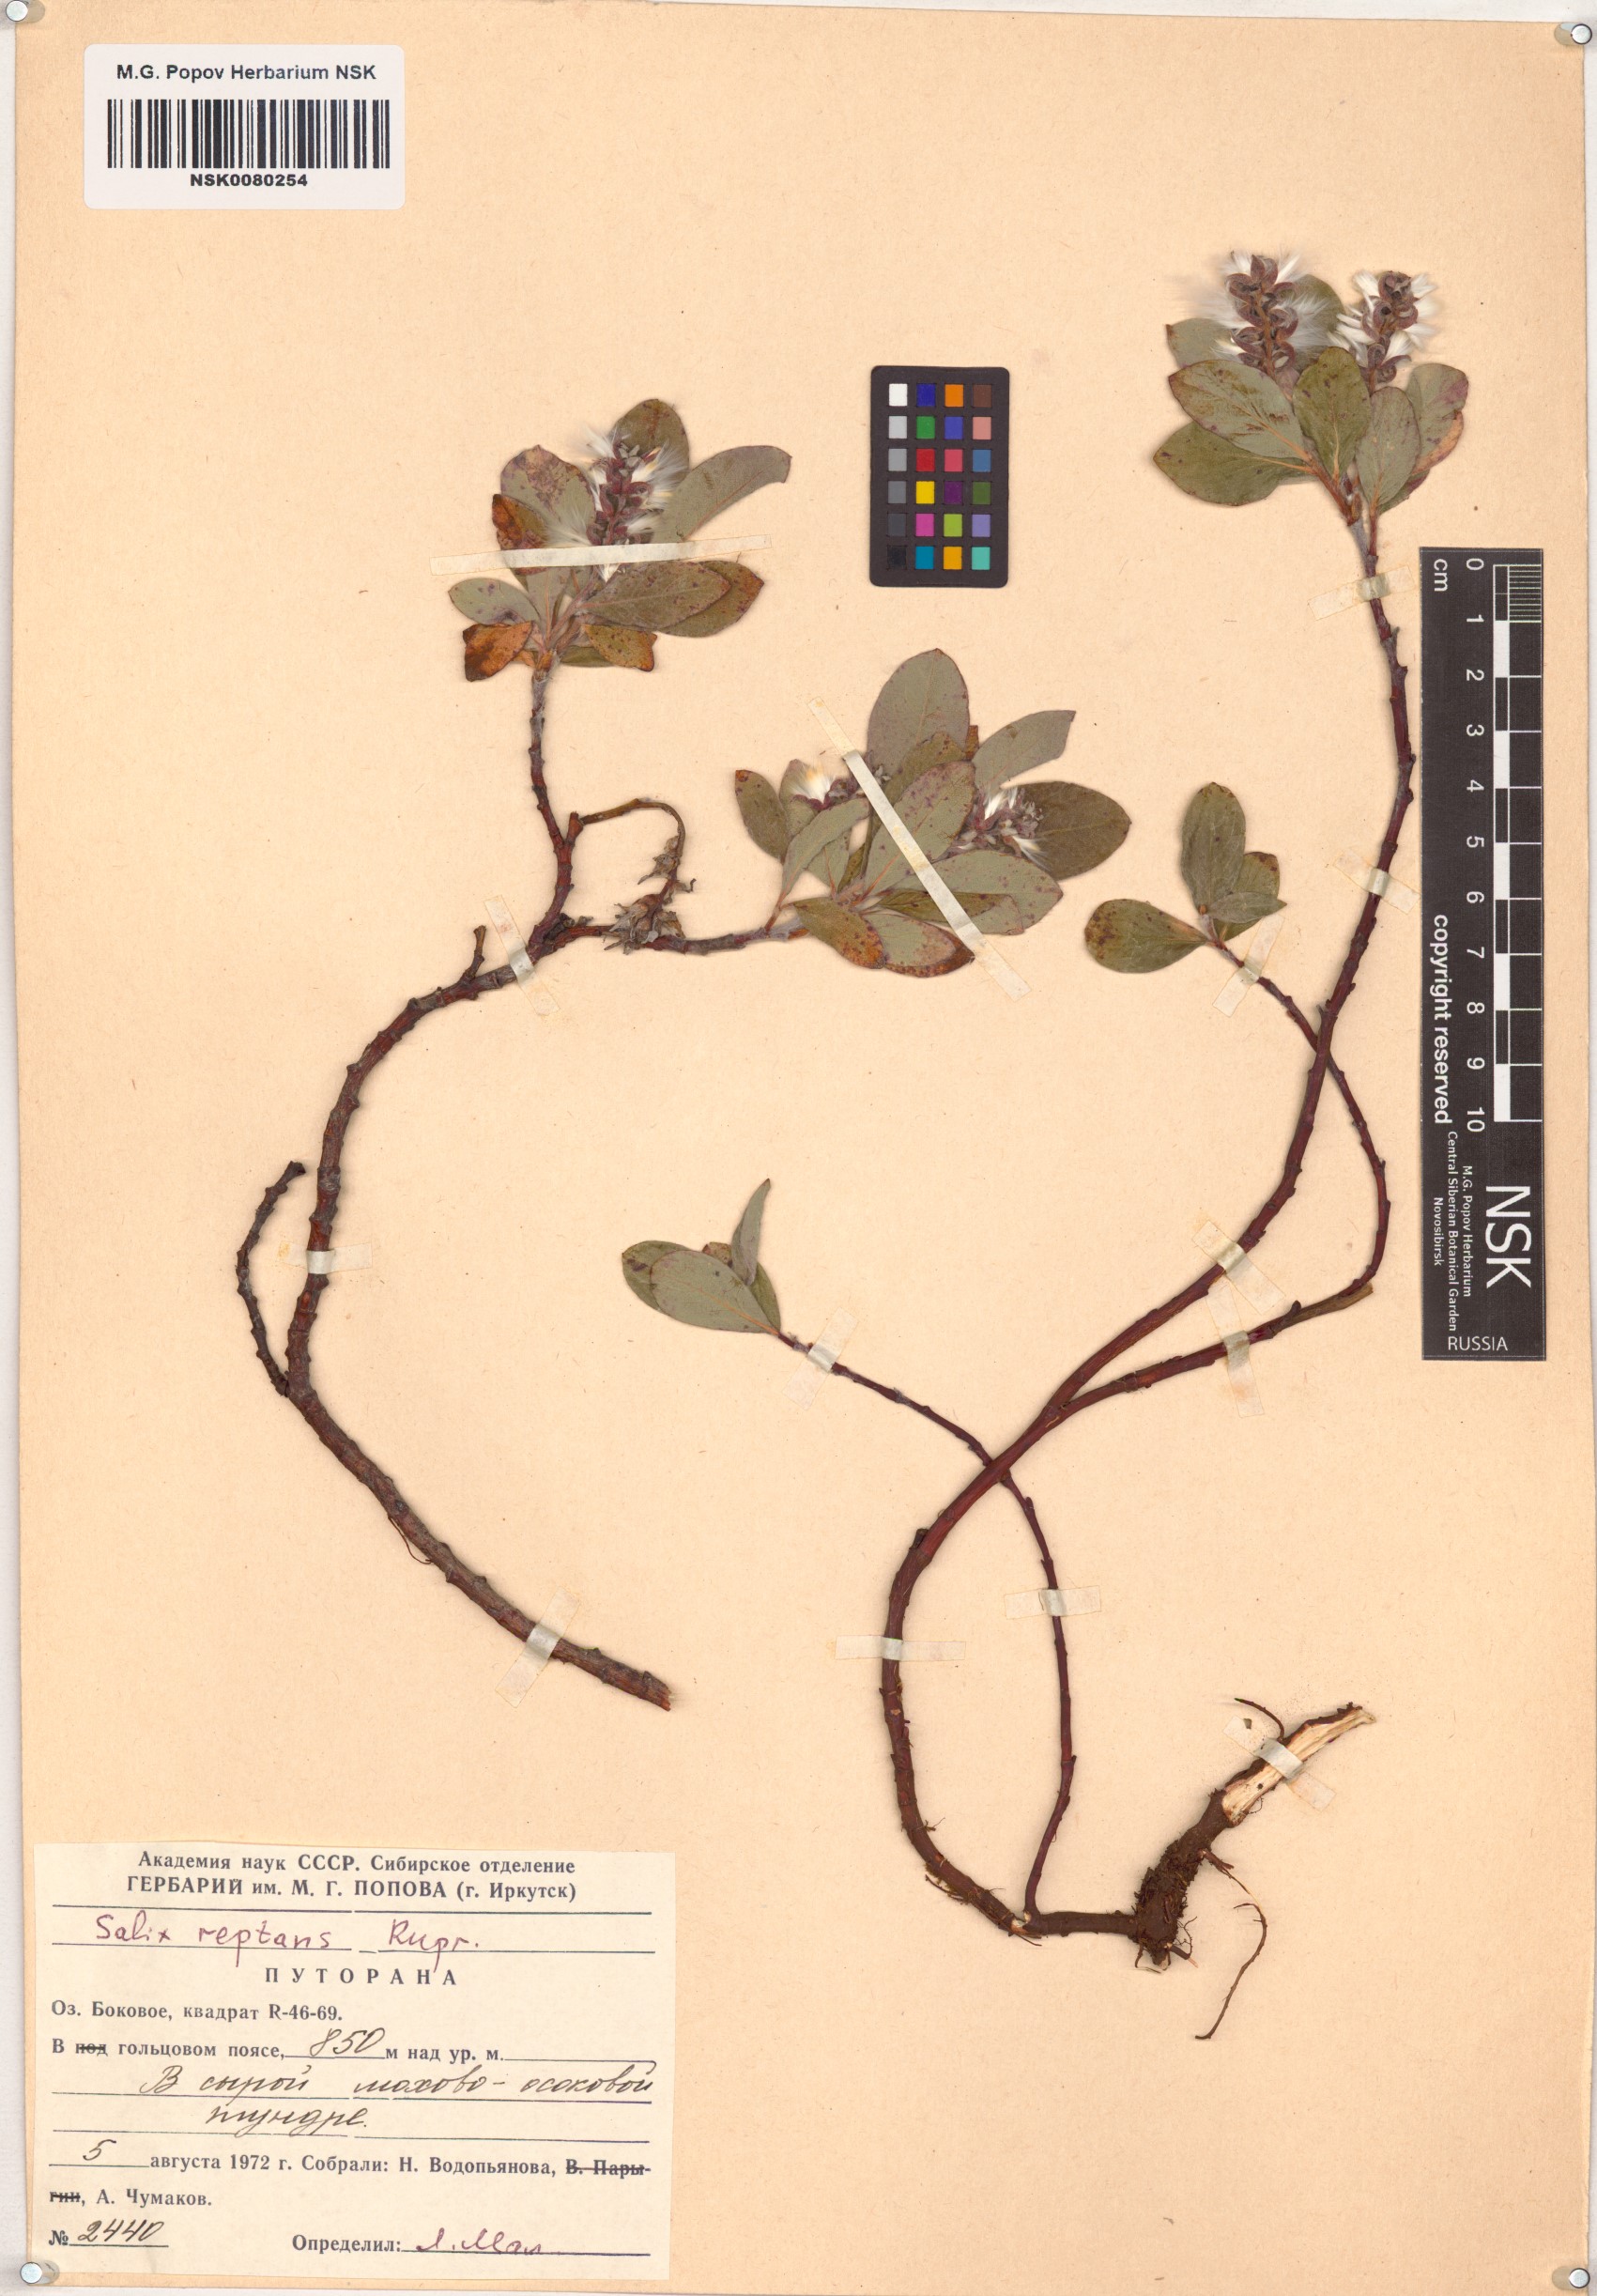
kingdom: Plantae
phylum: Tracheophyta
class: Magnoliopsida
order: Malpighiales
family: Salicaceae
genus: Salix
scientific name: Salix reptans
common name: Arctic creeping willow
